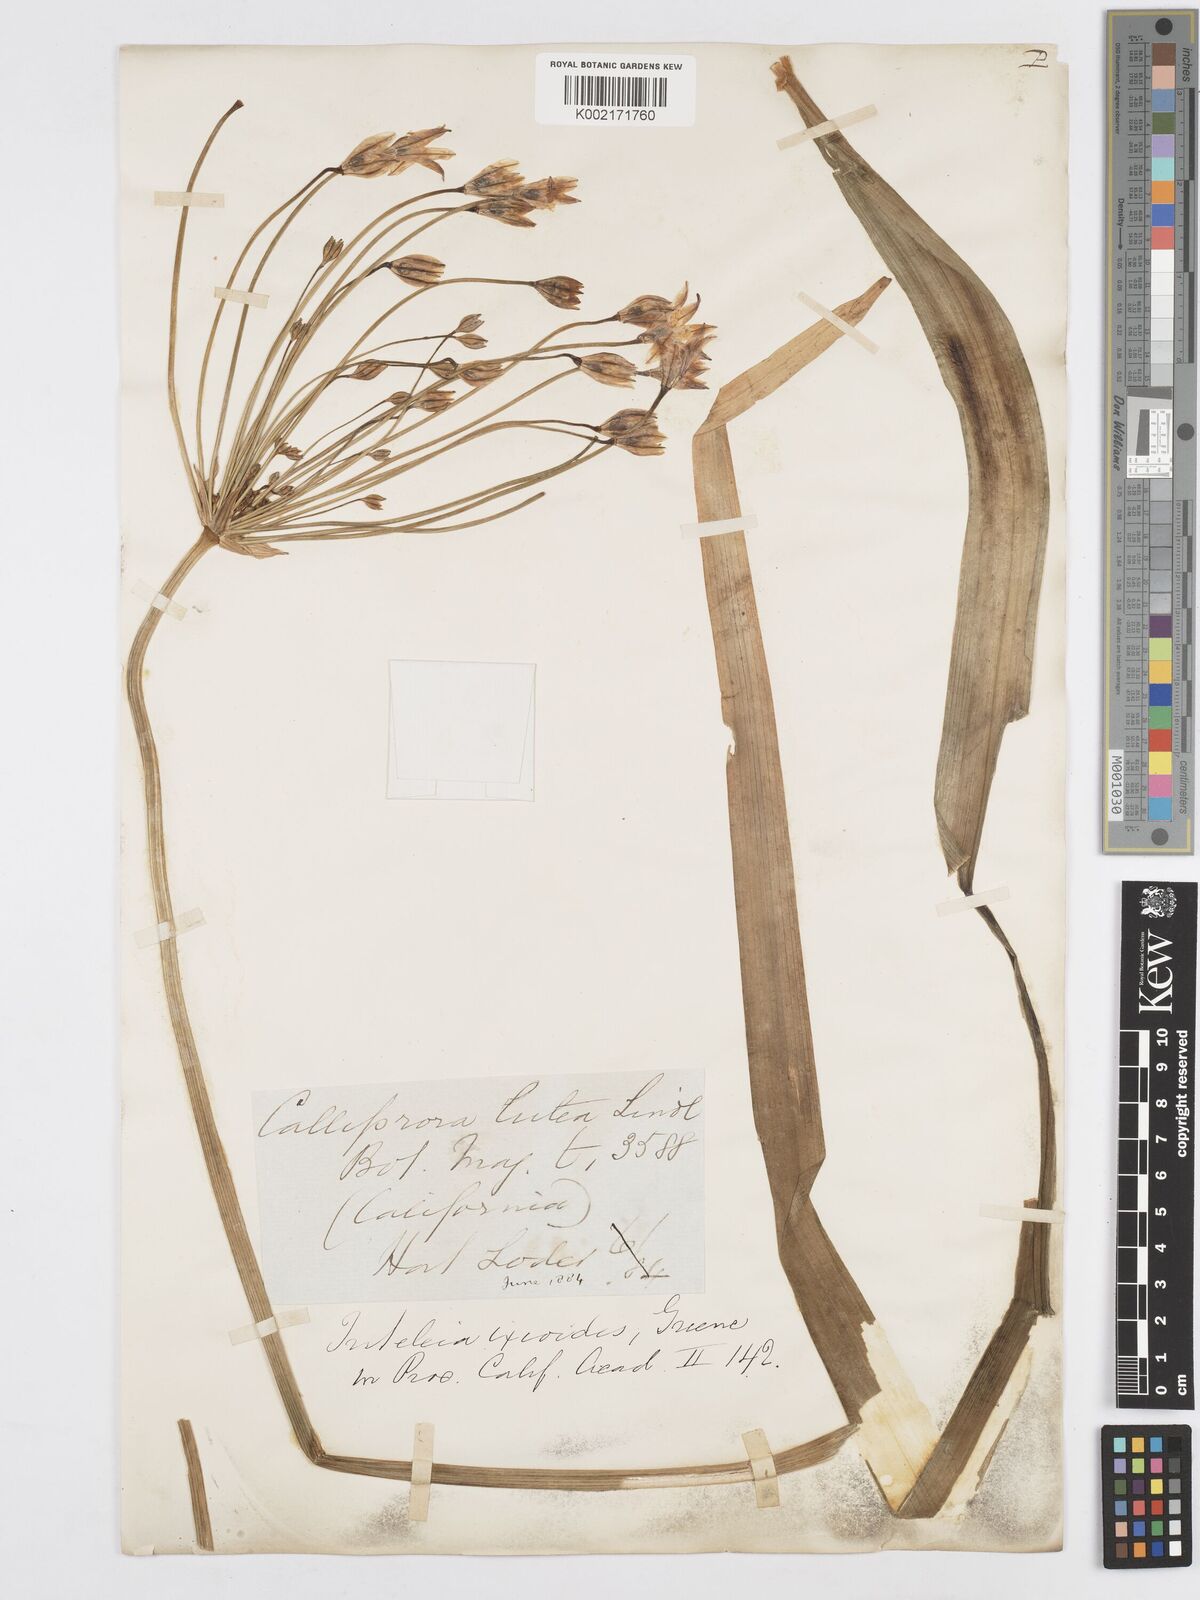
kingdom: Plantae
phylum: Tracheophyta
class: Liliopsida
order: Asparagales
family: Asparagaceae
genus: Triteleia
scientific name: Triteleia ixioides
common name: Yellow-brodiaea
